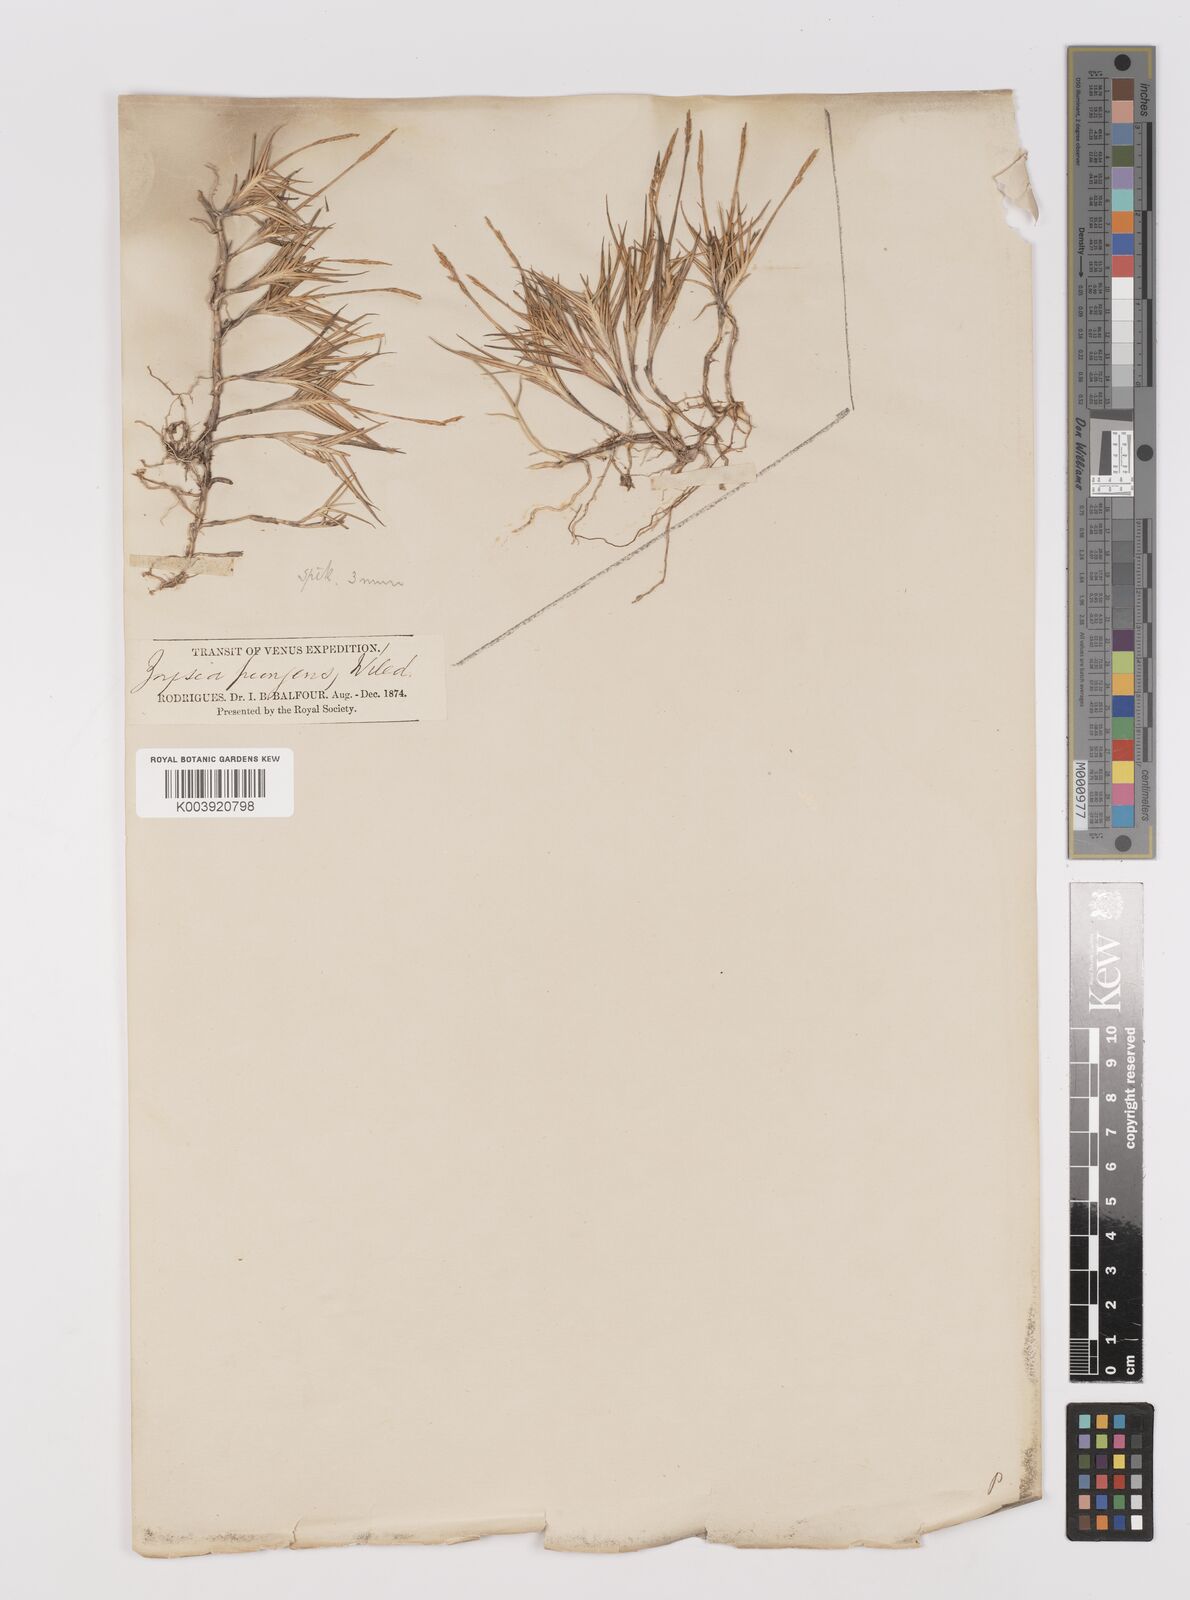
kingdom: Plantae
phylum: Tracheophyta
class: Liliopsida
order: Poales
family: Poaceae
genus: Zoysia
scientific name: Zoysia matrella
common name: Manila grass
